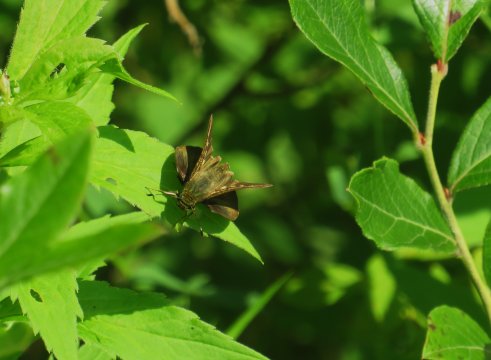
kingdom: Animalia
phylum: Arthropoda
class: Insecta
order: Lepidoptera
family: Hesperiidae
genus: Vernia
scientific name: Vernia verna
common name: Little Glassywing
